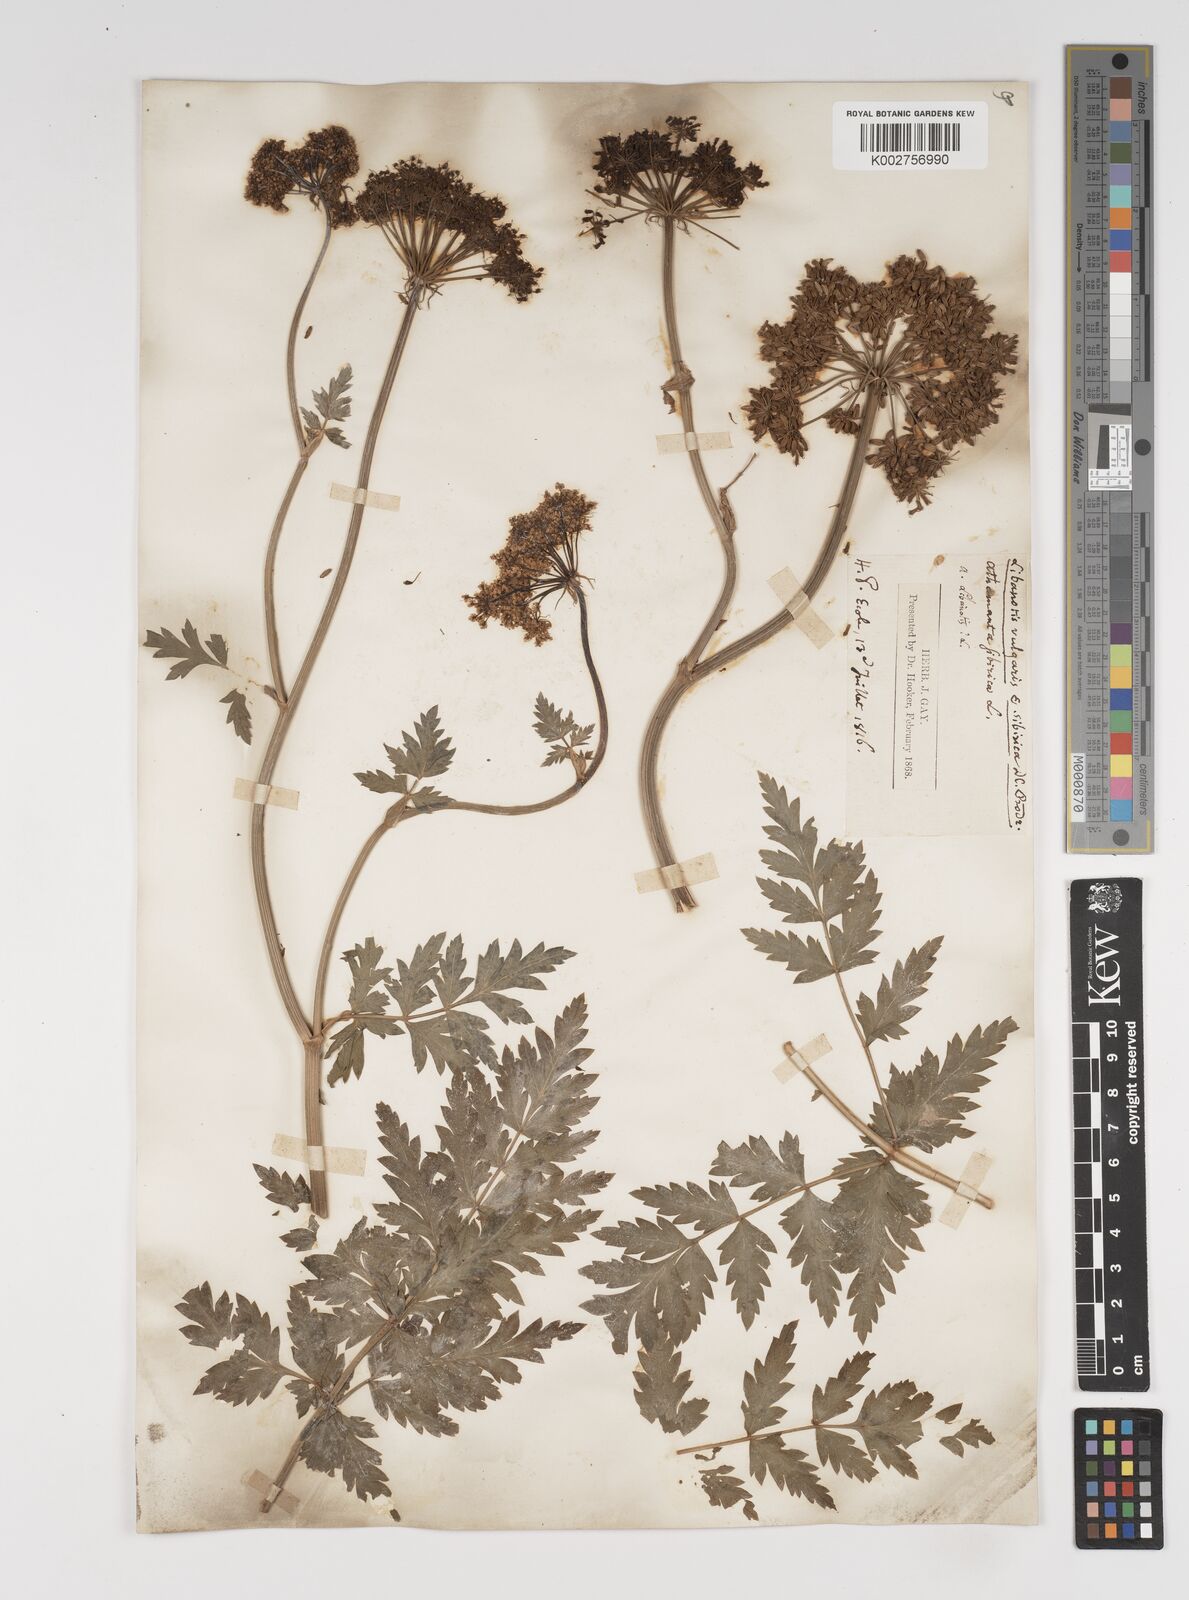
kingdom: Plantae
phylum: Tracheophyta
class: Magnoliopsida
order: Apiales
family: Apiaceae
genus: Seseli
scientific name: Seseli libanotis
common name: Mooncarrot
